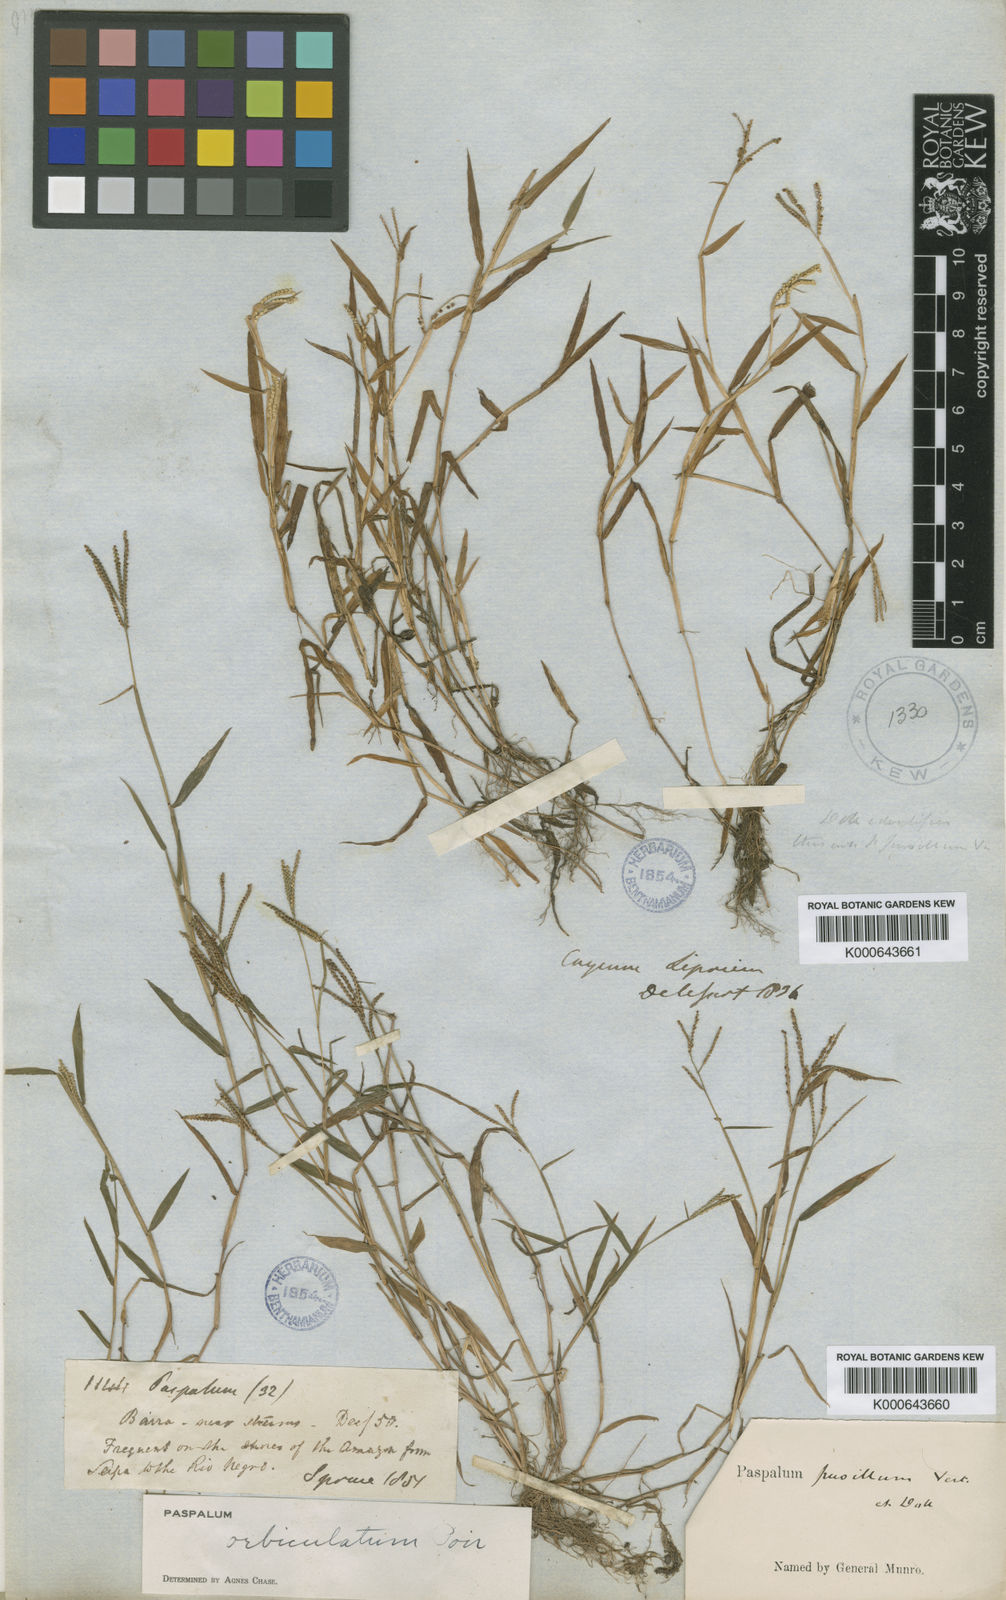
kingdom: Plantae
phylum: Tracheophyta
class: Liliopsida
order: Poales
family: Poaceae
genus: Paspalum
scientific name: Paspalum orbiculatum
